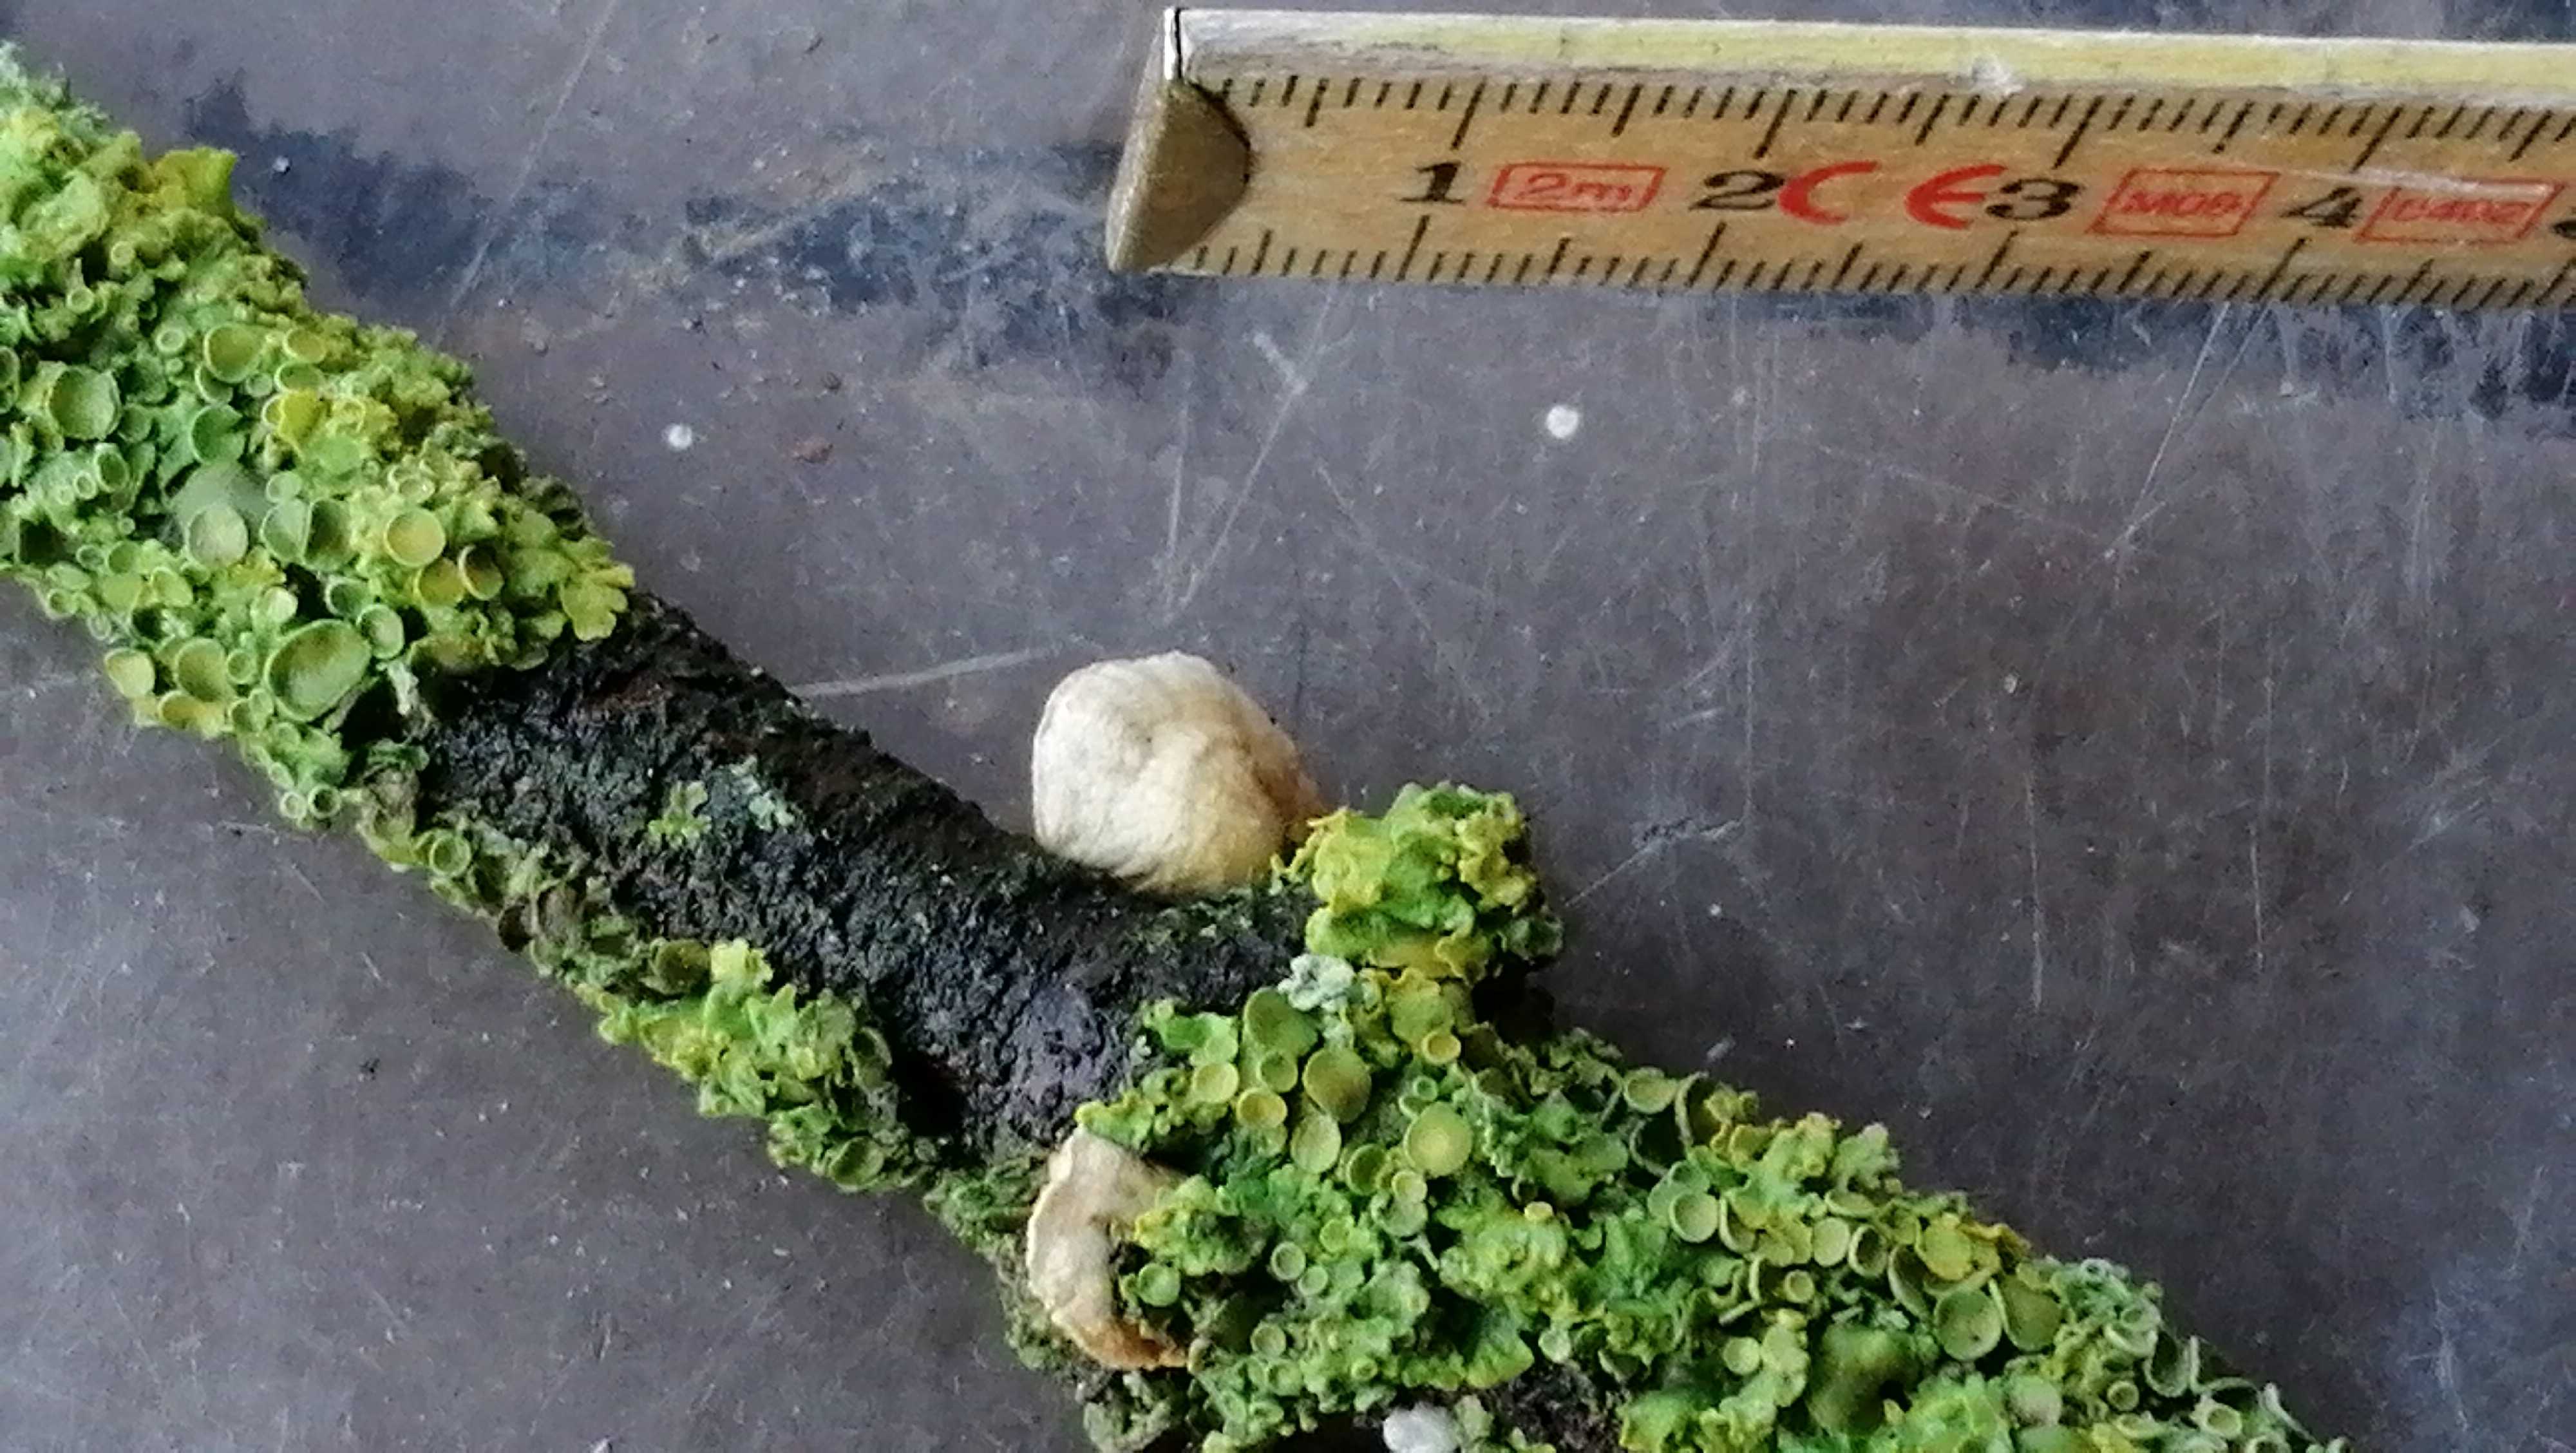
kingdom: Fungi
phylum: Basidiomycota
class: Agaricomycetes
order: Agaricales
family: Crepidotaceae
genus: Crepidotus
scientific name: Crepidotus
